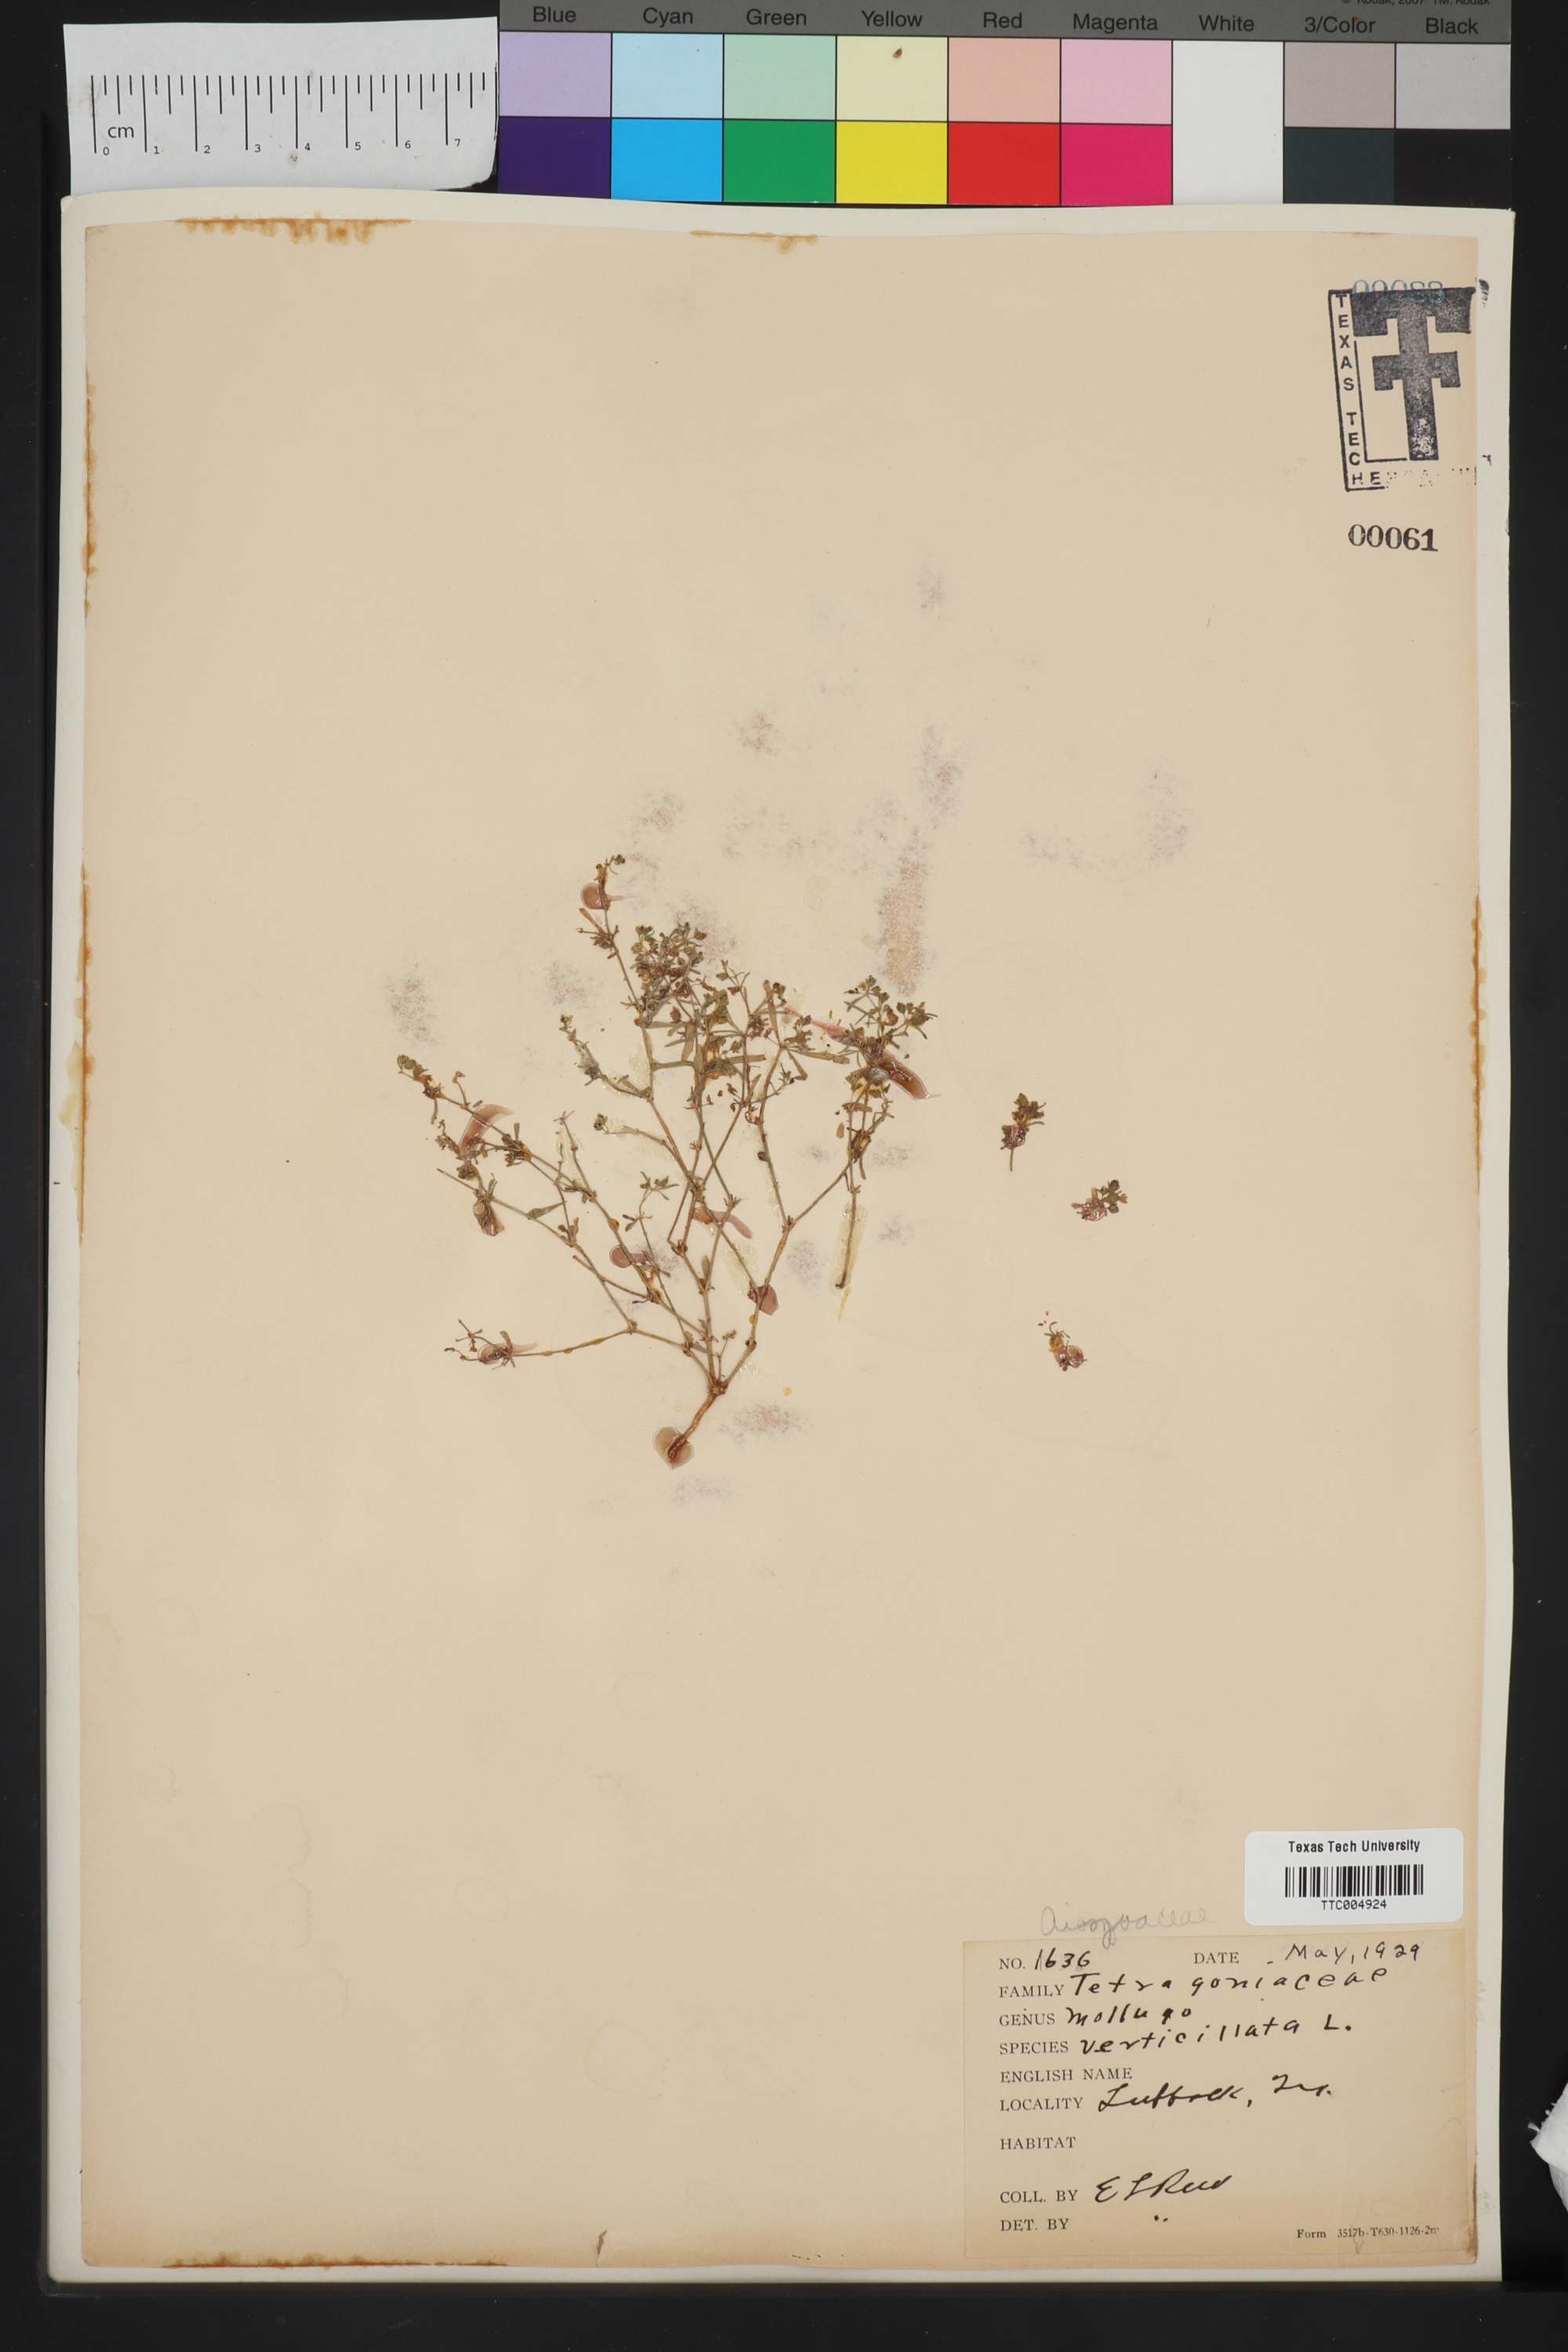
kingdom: Plantae
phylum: Tracheophyta
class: Magnoliopsida
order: Caryophyllales
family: Molluginaceae
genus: Mollugo
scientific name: Mollugo verticillata
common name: Green carpetweed
